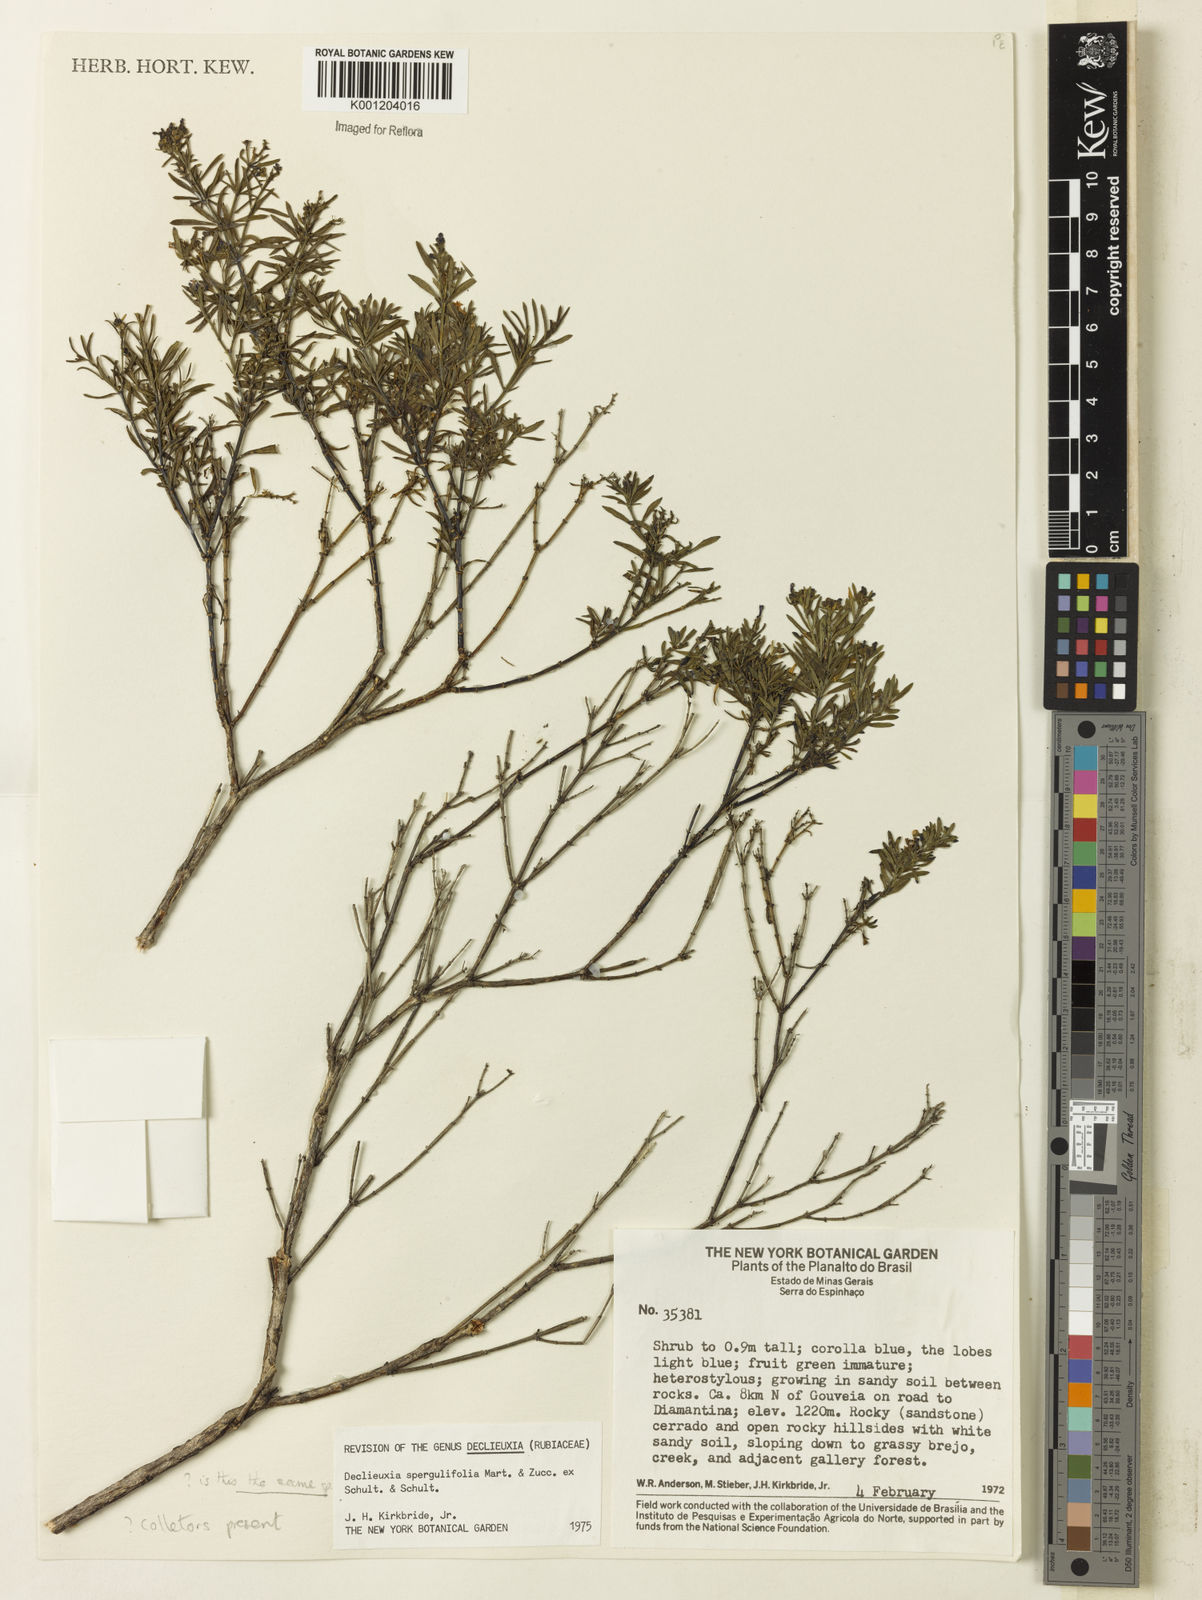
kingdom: Plantae
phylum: Tracheophyta
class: Magnoliopsida
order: Gentianales
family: Rubiaceae
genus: Declieuxia
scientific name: Declieuxia
